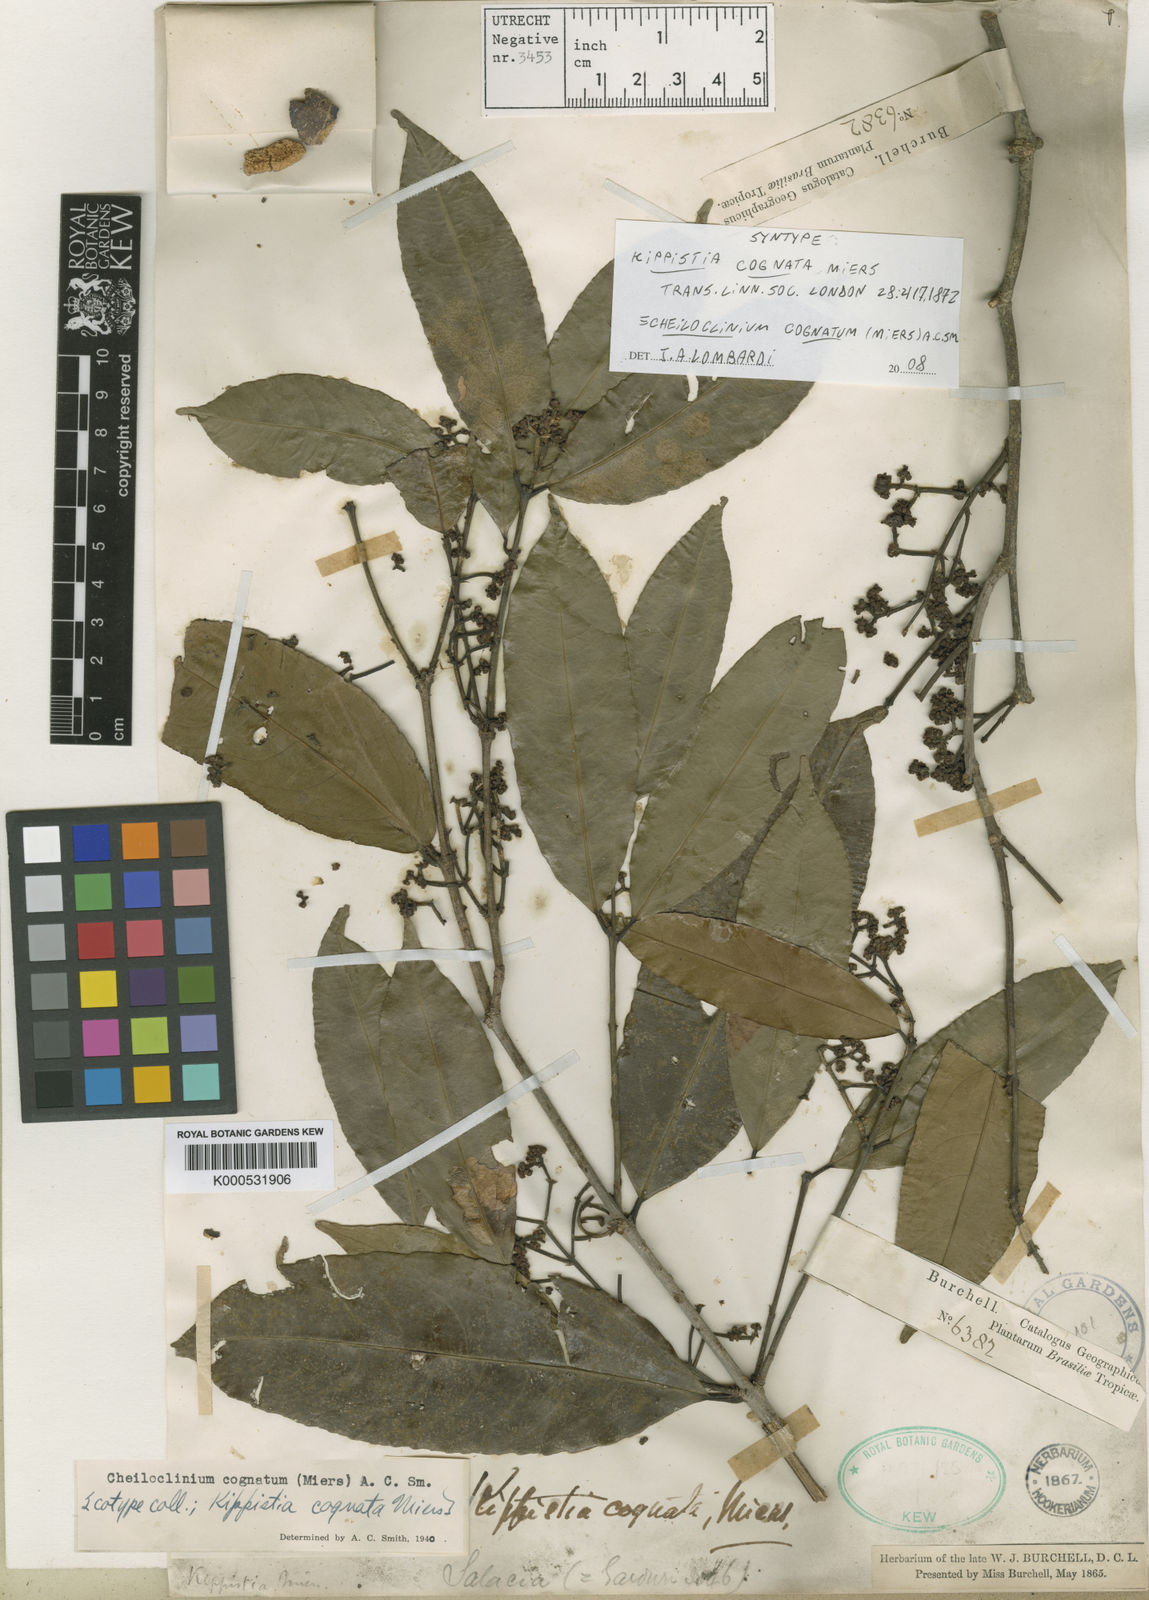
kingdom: Plantae
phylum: Tracheophyta
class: Magnoliopsida
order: Celastrales
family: Celastraceae
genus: Cheiloclinium
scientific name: Cheiloclinium cognatum
